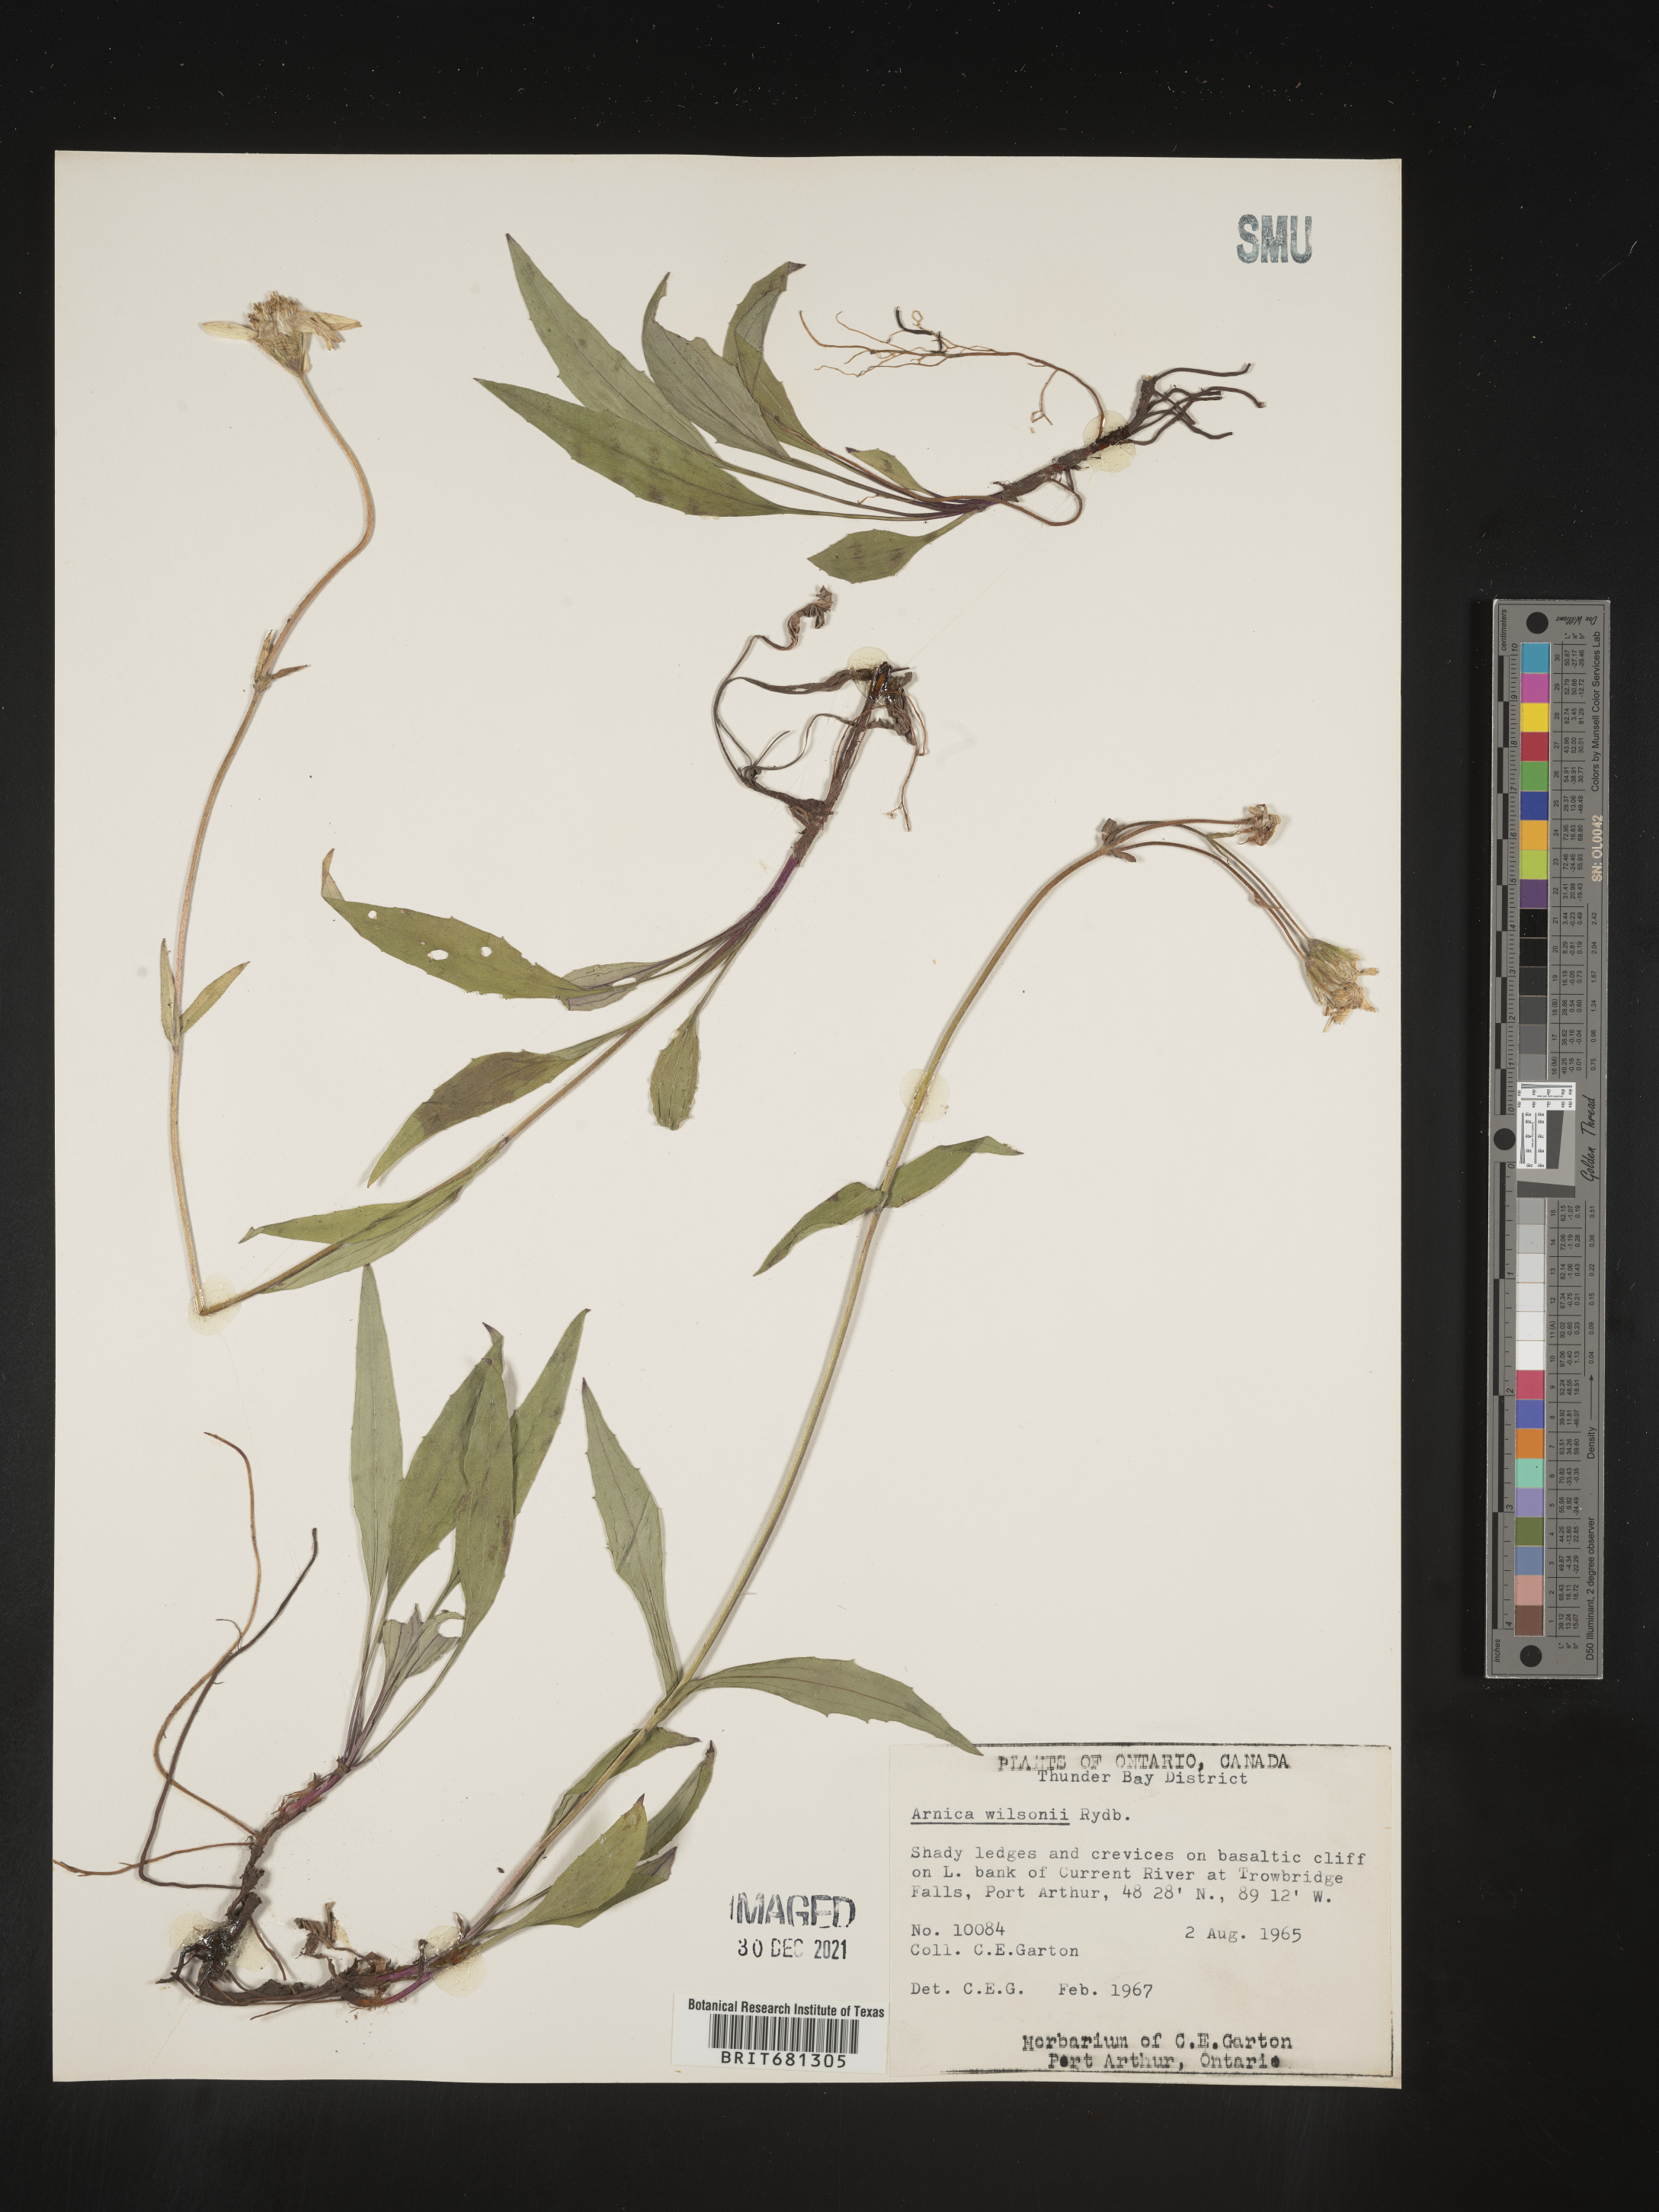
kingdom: Plantae
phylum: Tracheophyta
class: Magnoliopsida
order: Asterales
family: Asteraceae
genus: Arnica
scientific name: Arnica chamissonis
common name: Leafy arnica
